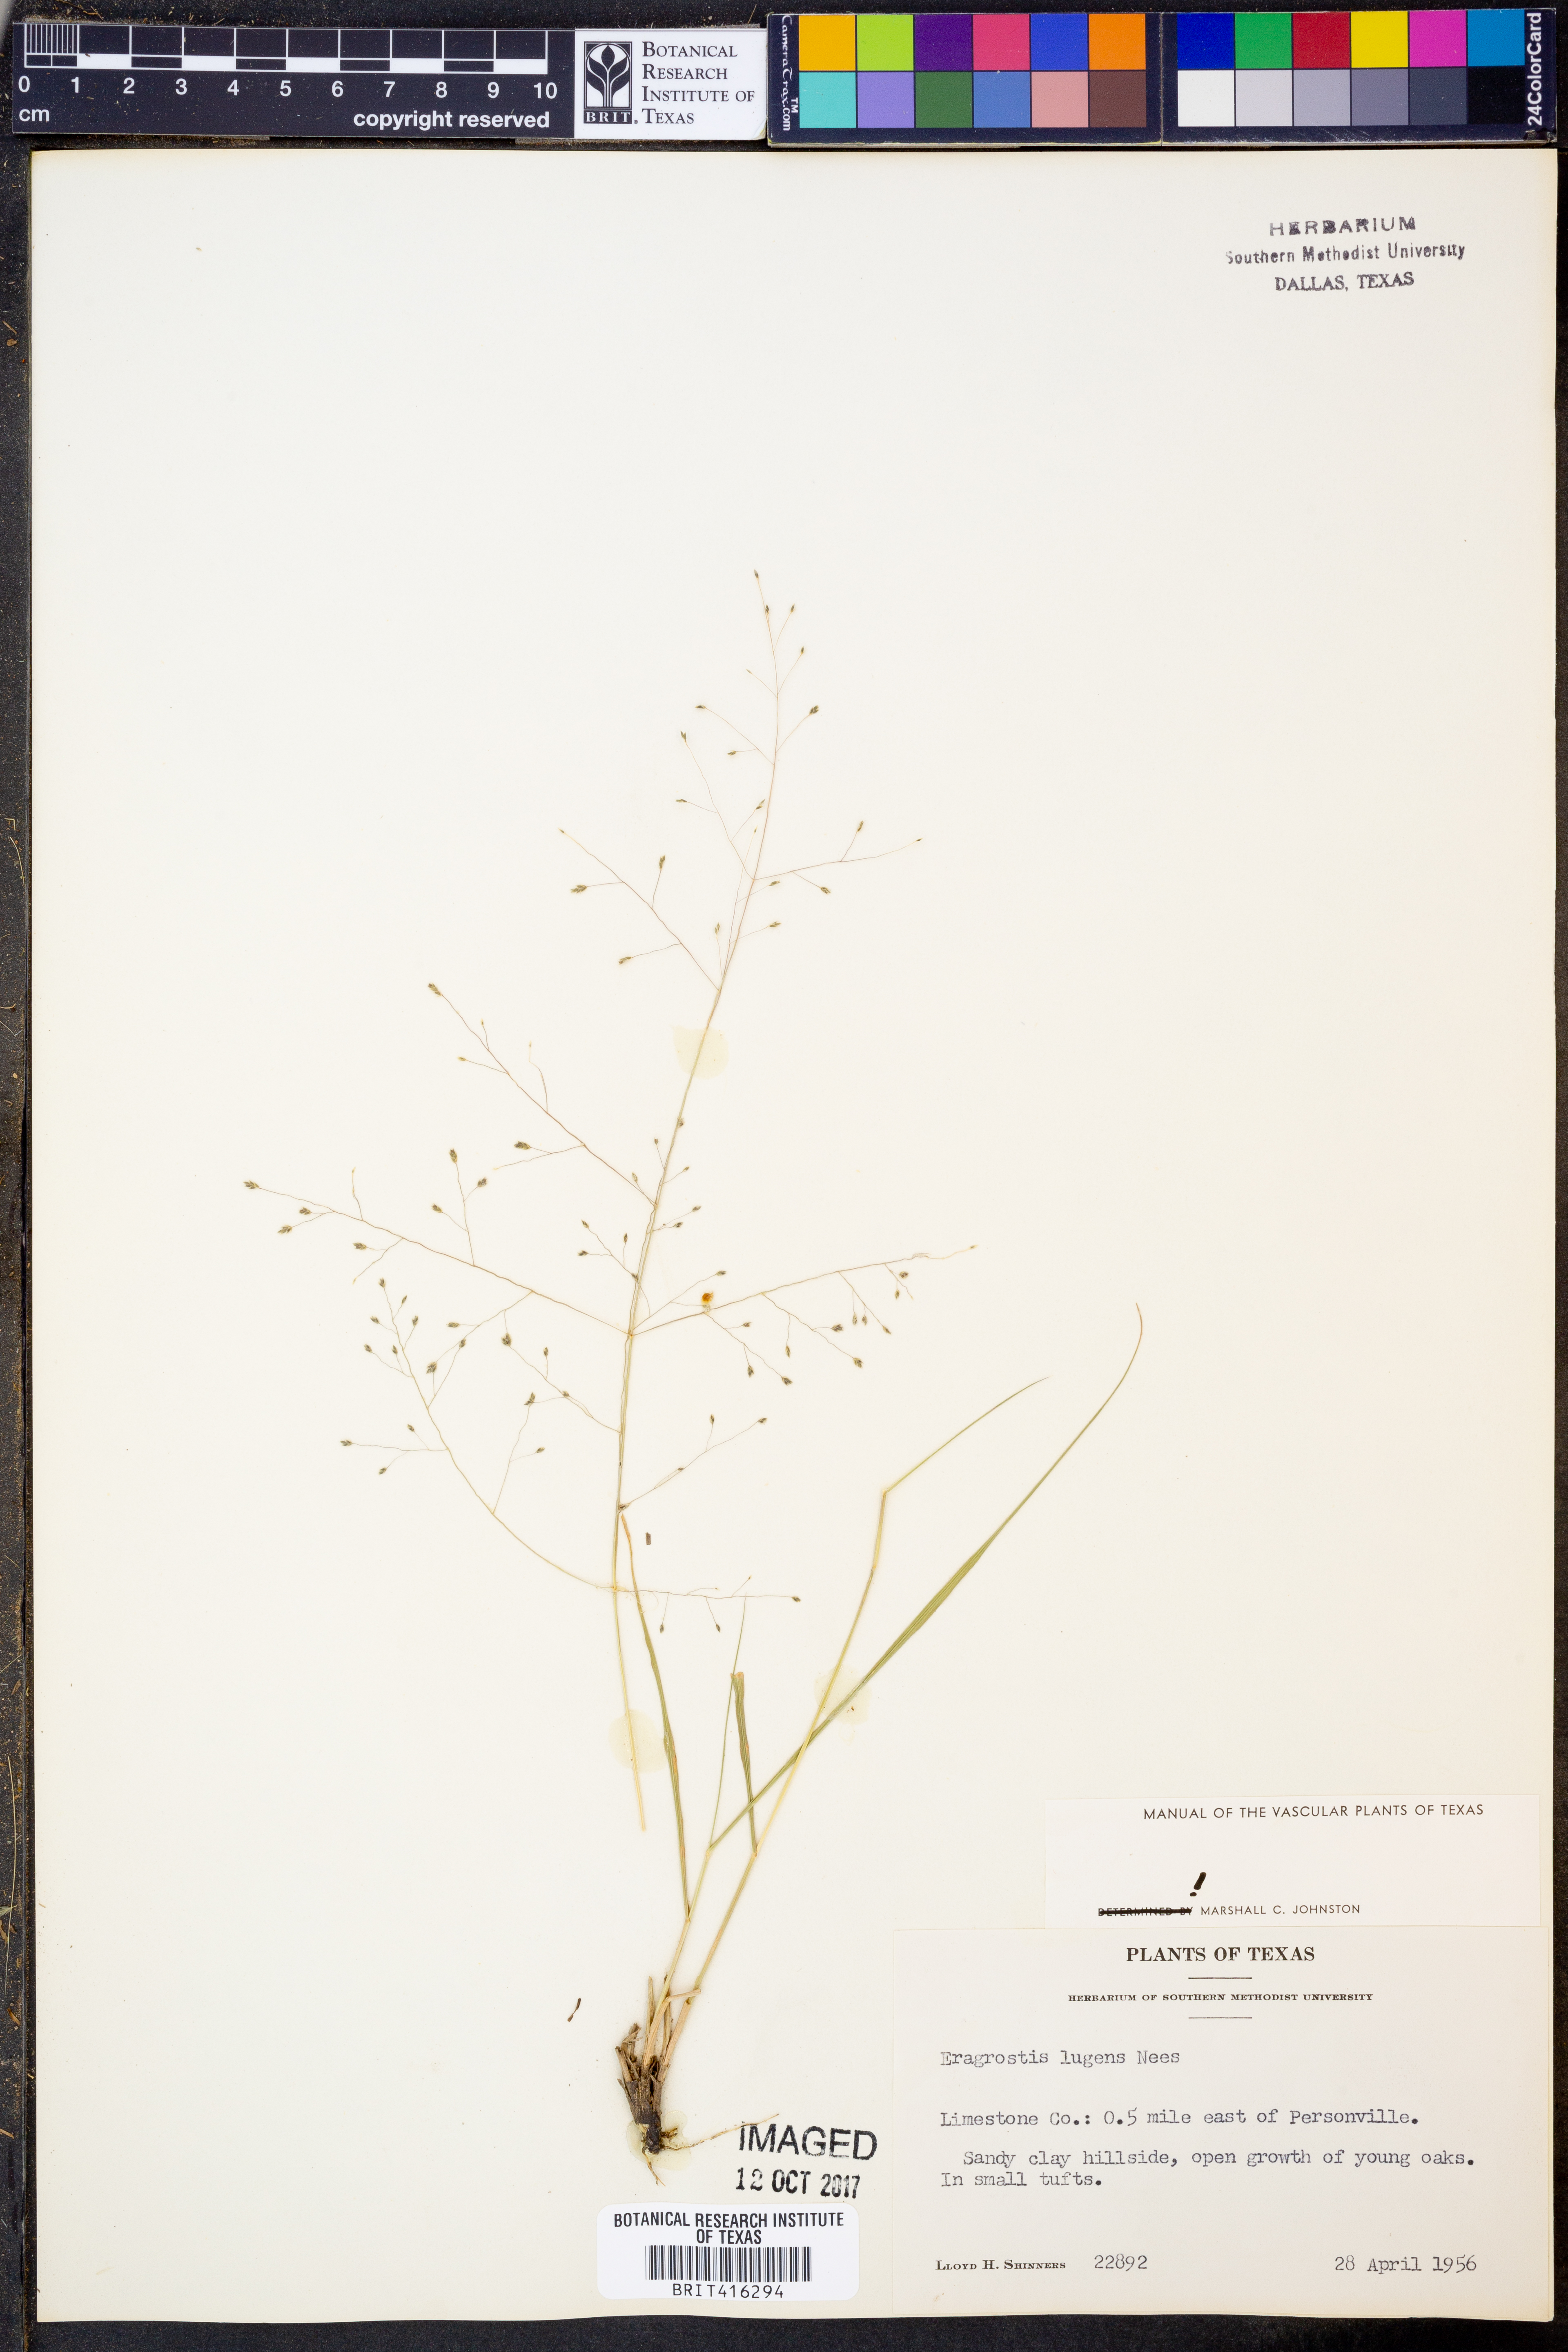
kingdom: Plantae
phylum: Tracheophyta
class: Liliopsida
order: Poales
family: Poaceae
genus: Eragrostis
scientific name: Eragrostis capillaris
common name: Hair-like lovegrass
